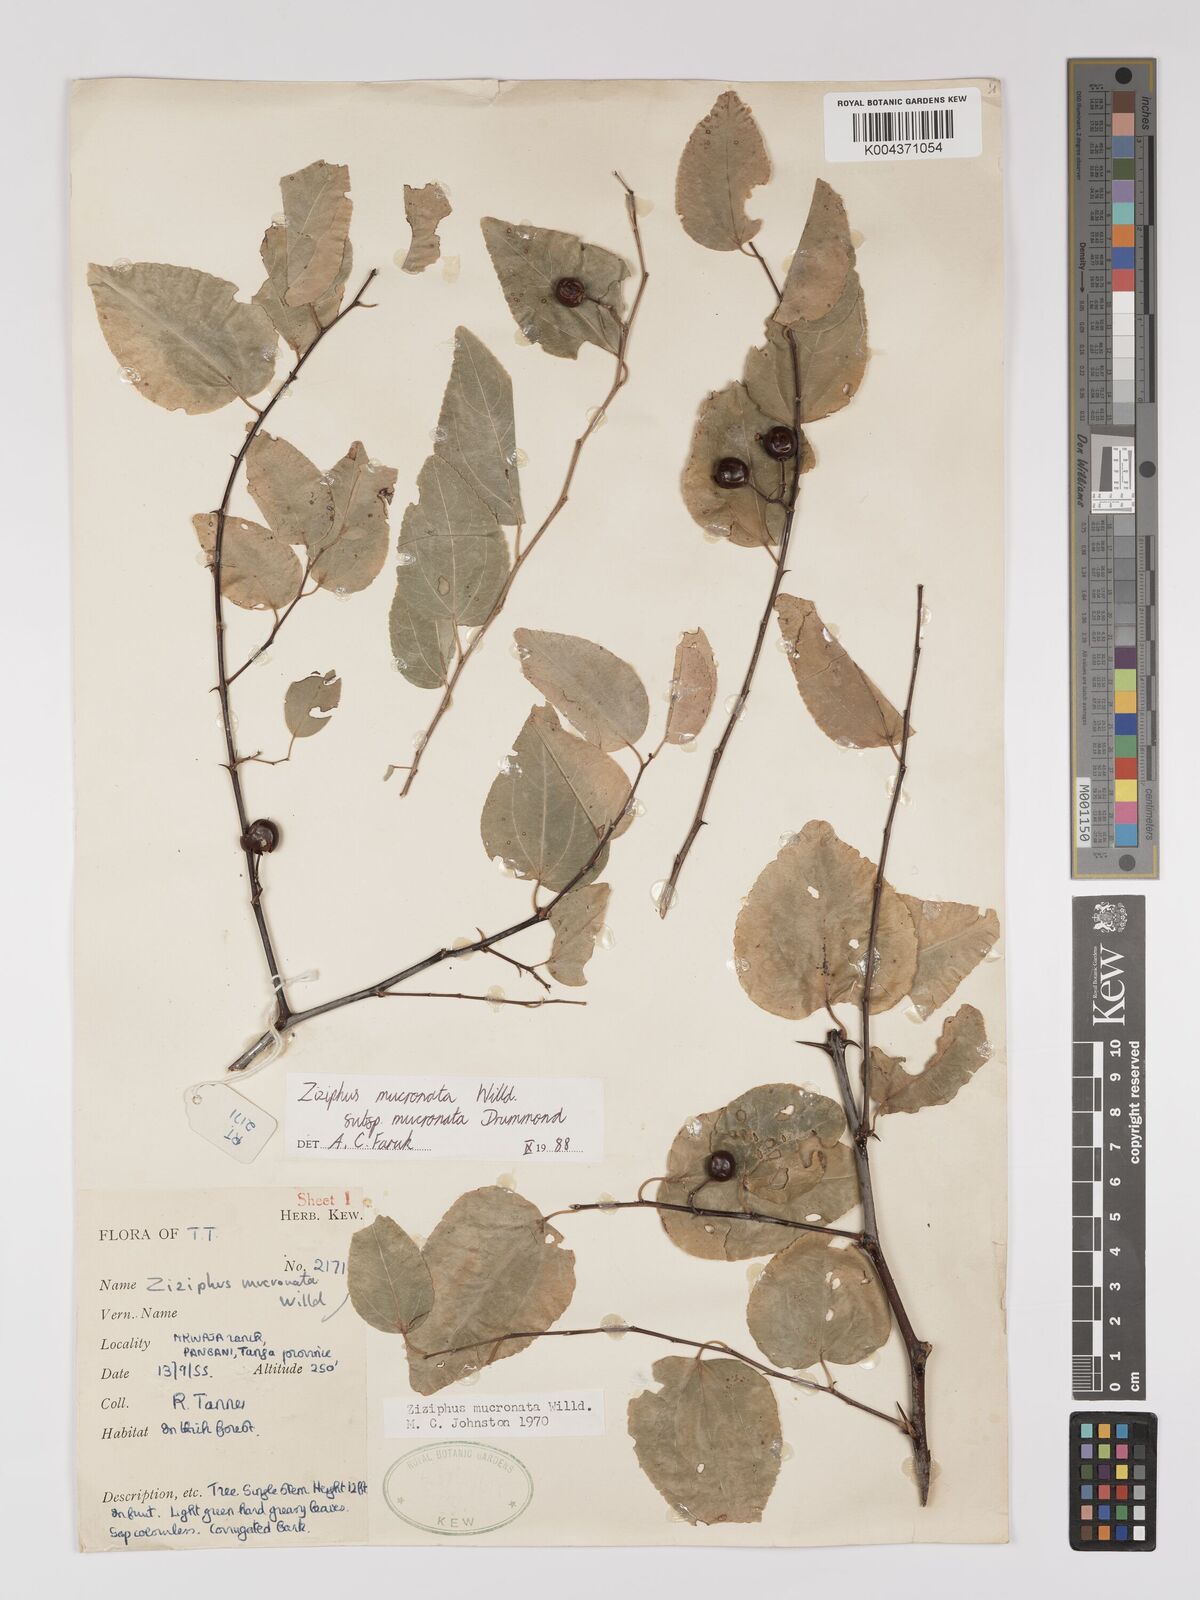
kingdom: Plantae
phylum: Tracheophyta
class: Magnoliopsida
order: Rosales
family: Rhamnaceae
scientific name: Rhamnaceae
